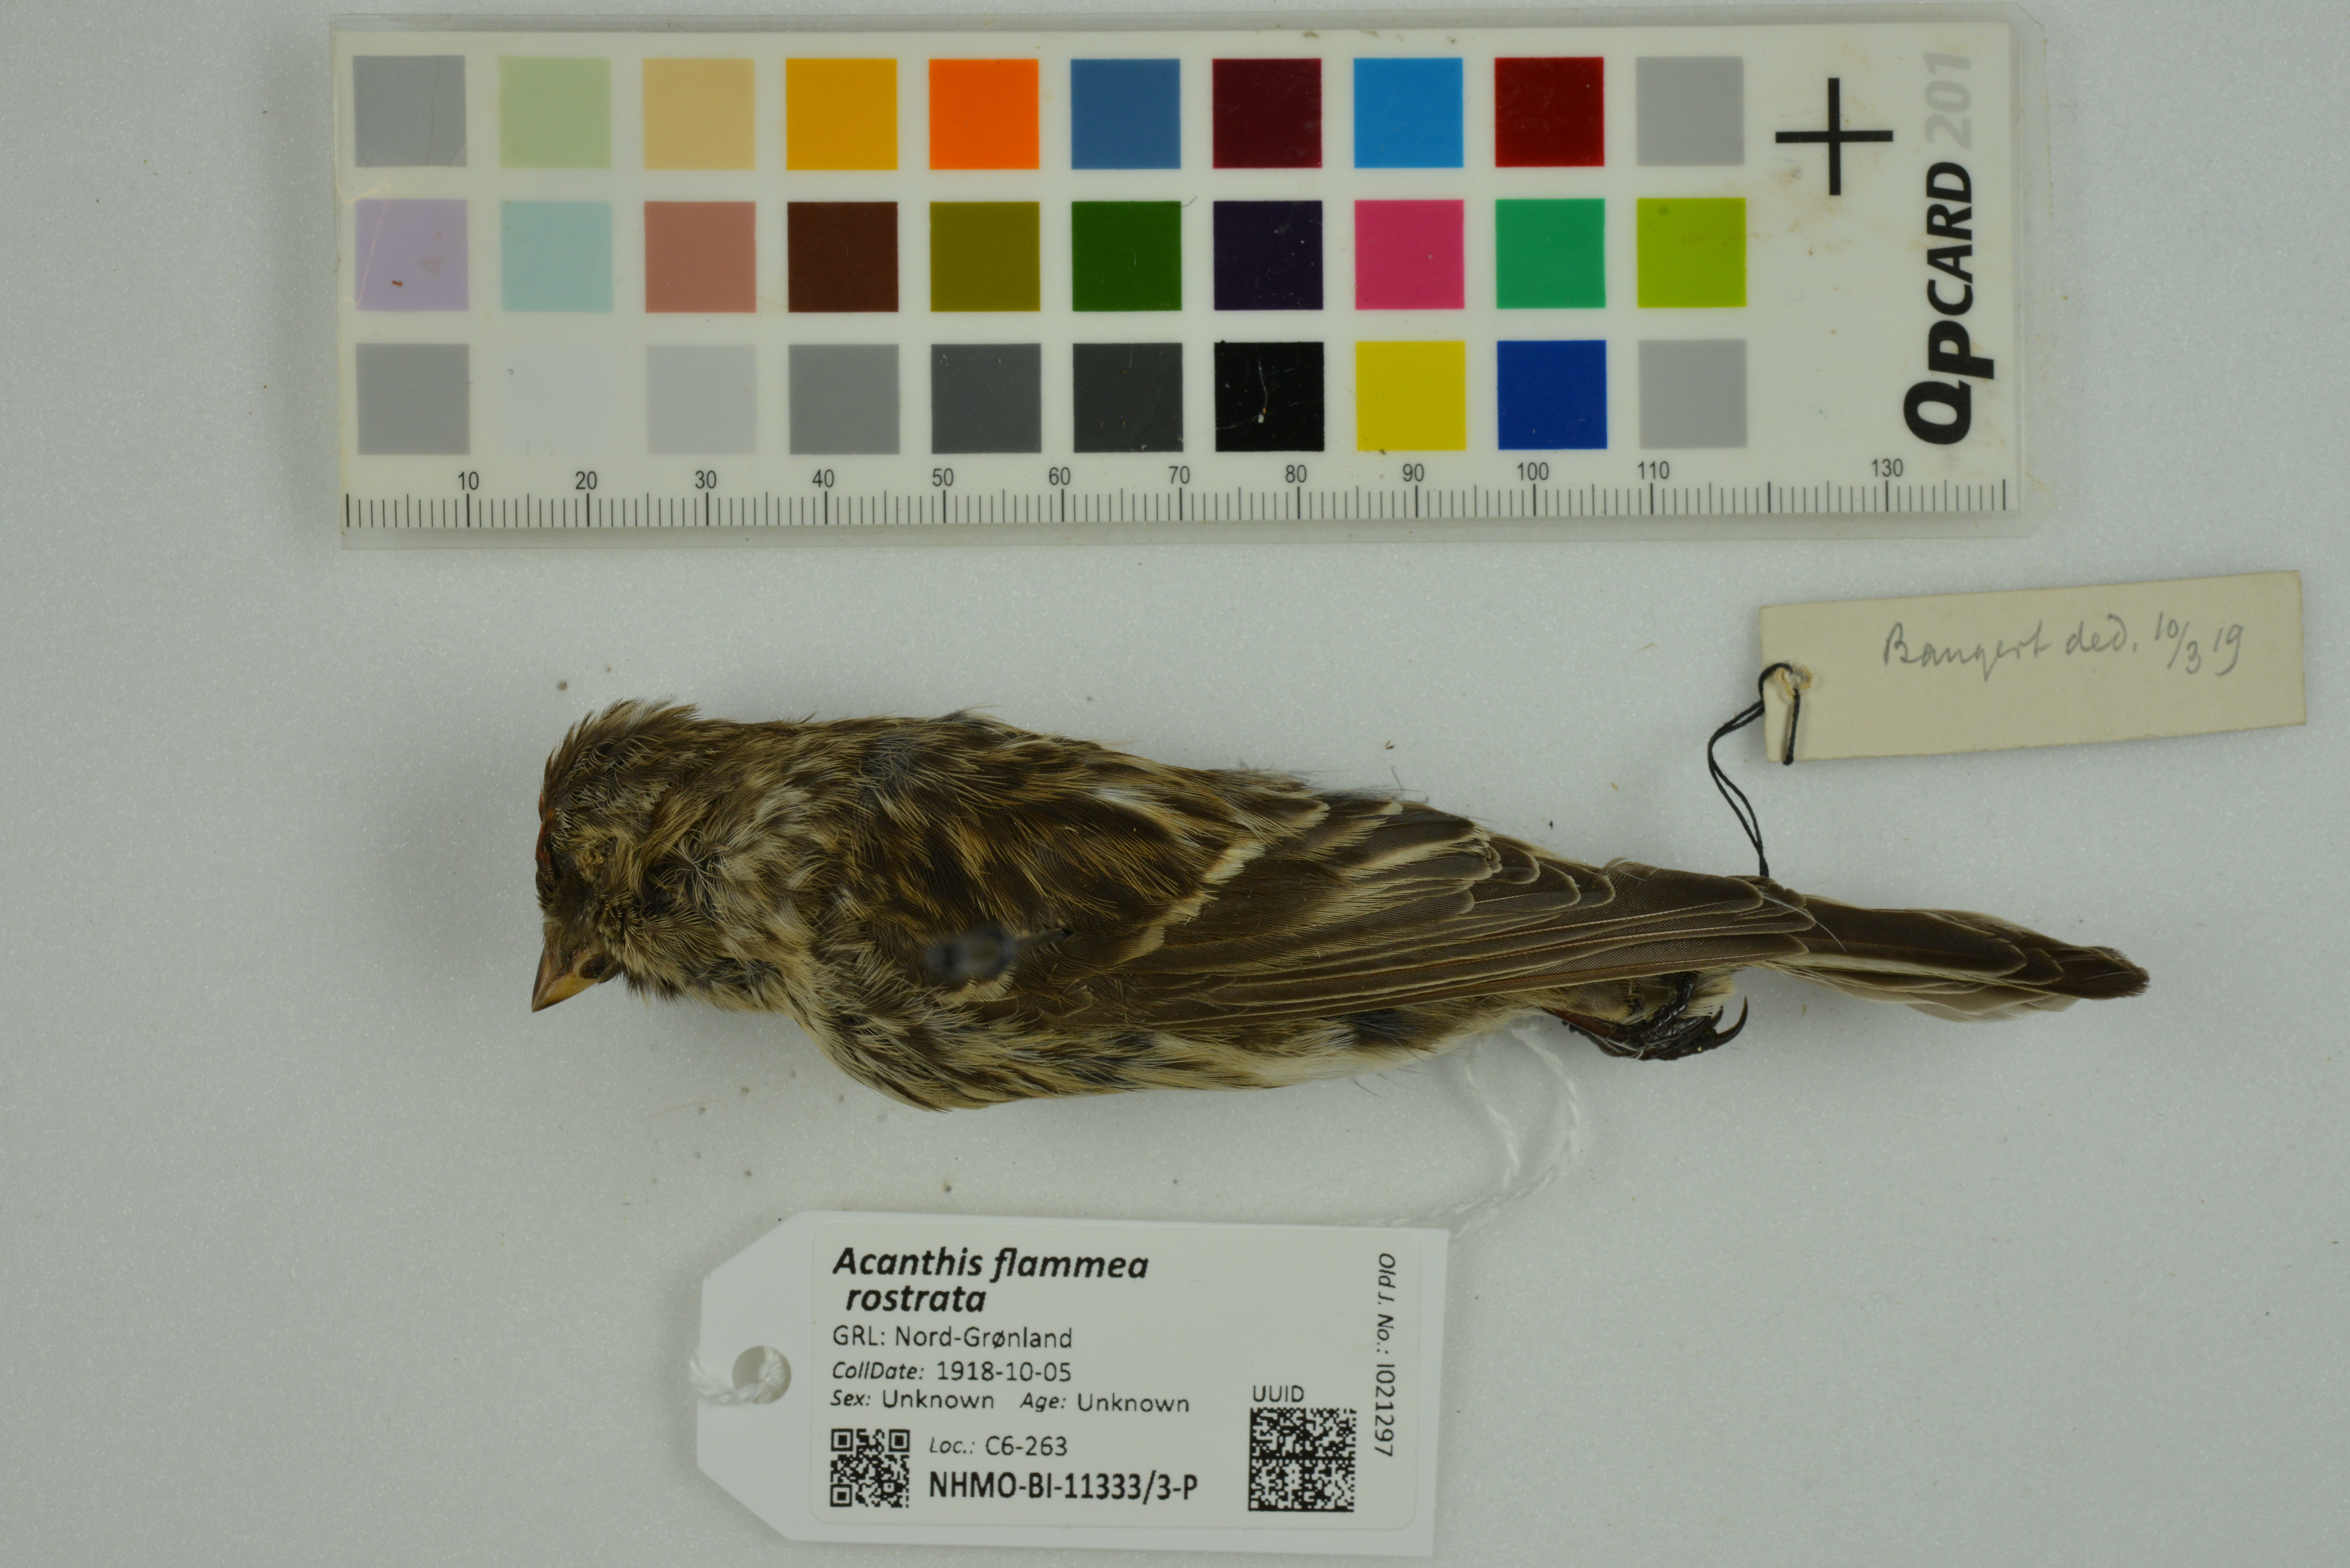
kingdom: Animalia
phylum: Chordata
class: Aves
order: Passeriformes
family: Fringillidae
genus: Acanthis
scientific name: Acanthis flammea
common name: Common redpoll
